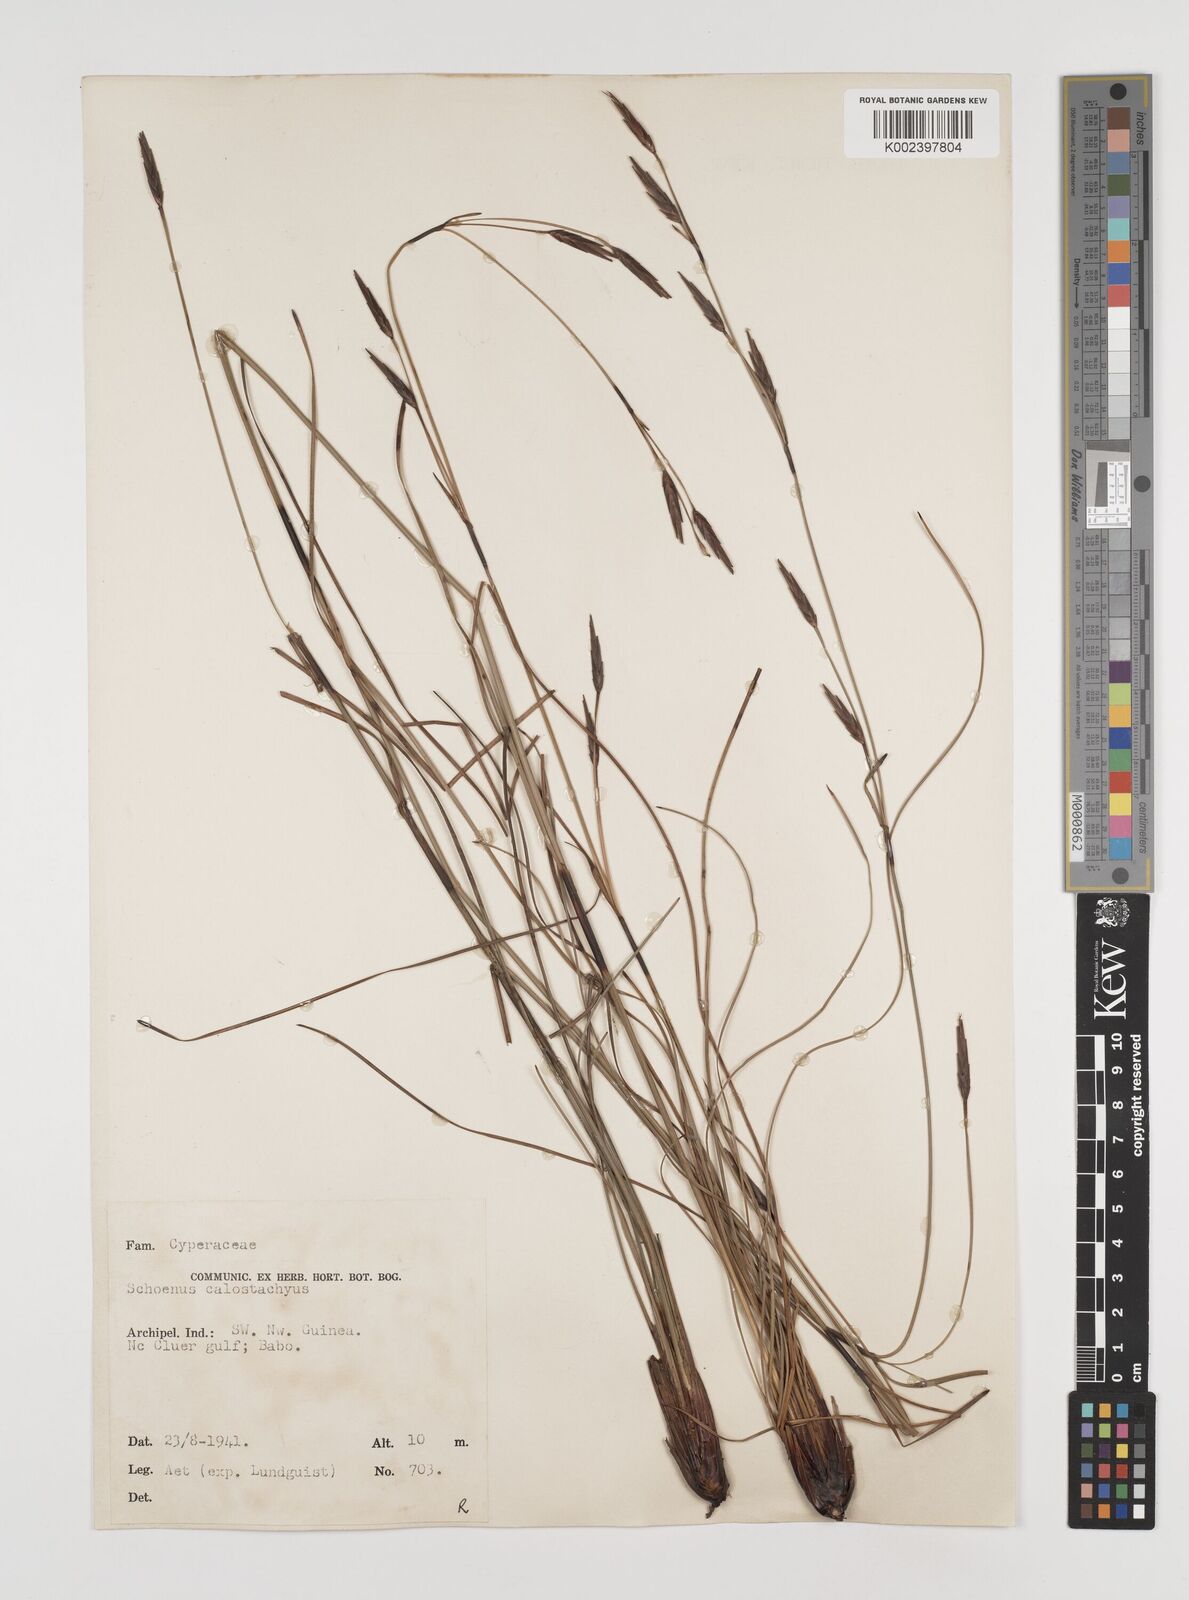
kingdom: Plantae
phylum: Tracheophyta
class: Liliopsida
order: Poales
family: Cyperaceae
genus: Schoenus
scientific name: Schoenus calostachyus
